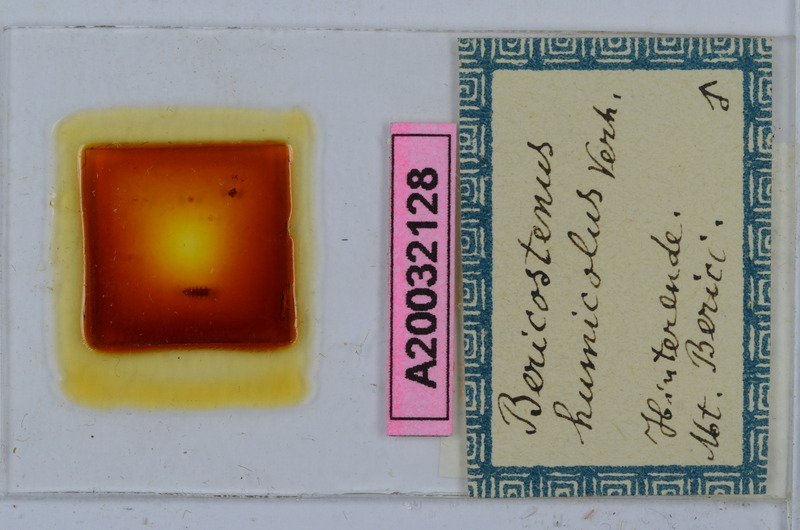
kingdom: Animalia
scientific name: Animalia
